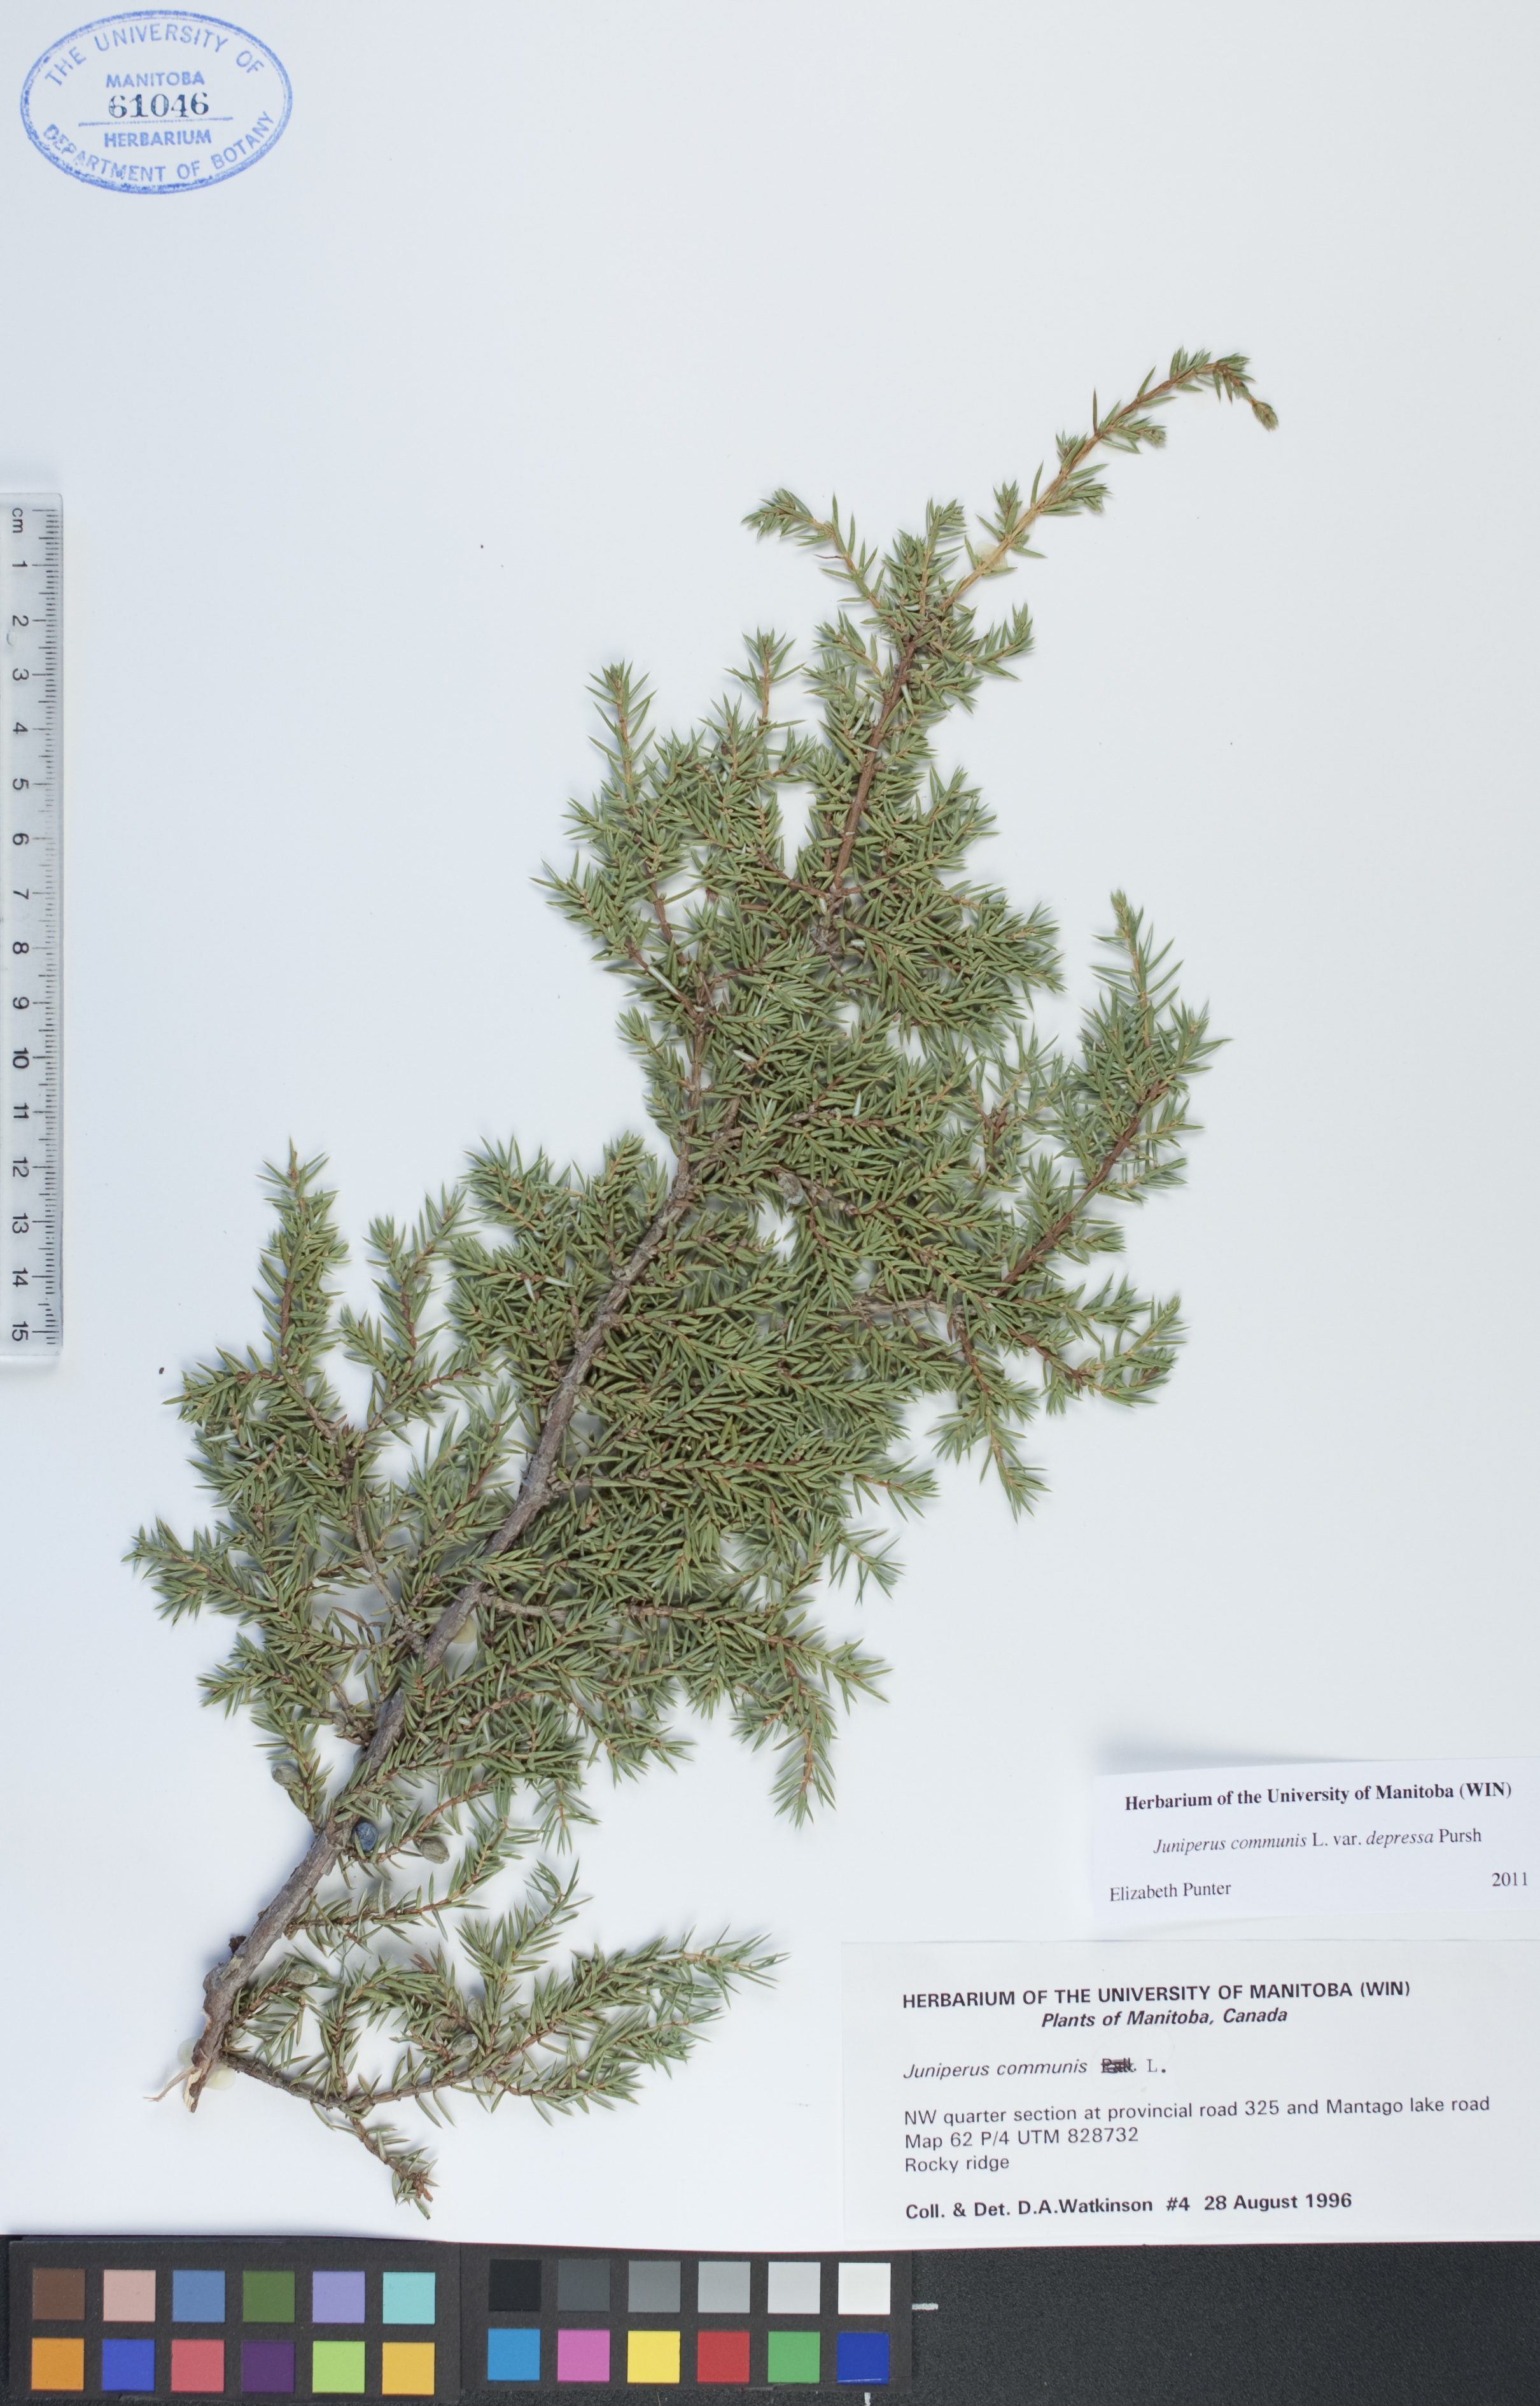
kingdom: Plantae
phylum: Tracheophyta
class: Pinopsida
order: Pinales
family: Cupressaceae
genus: Juniperus
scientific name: Juniperus communis
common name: Common juniper
